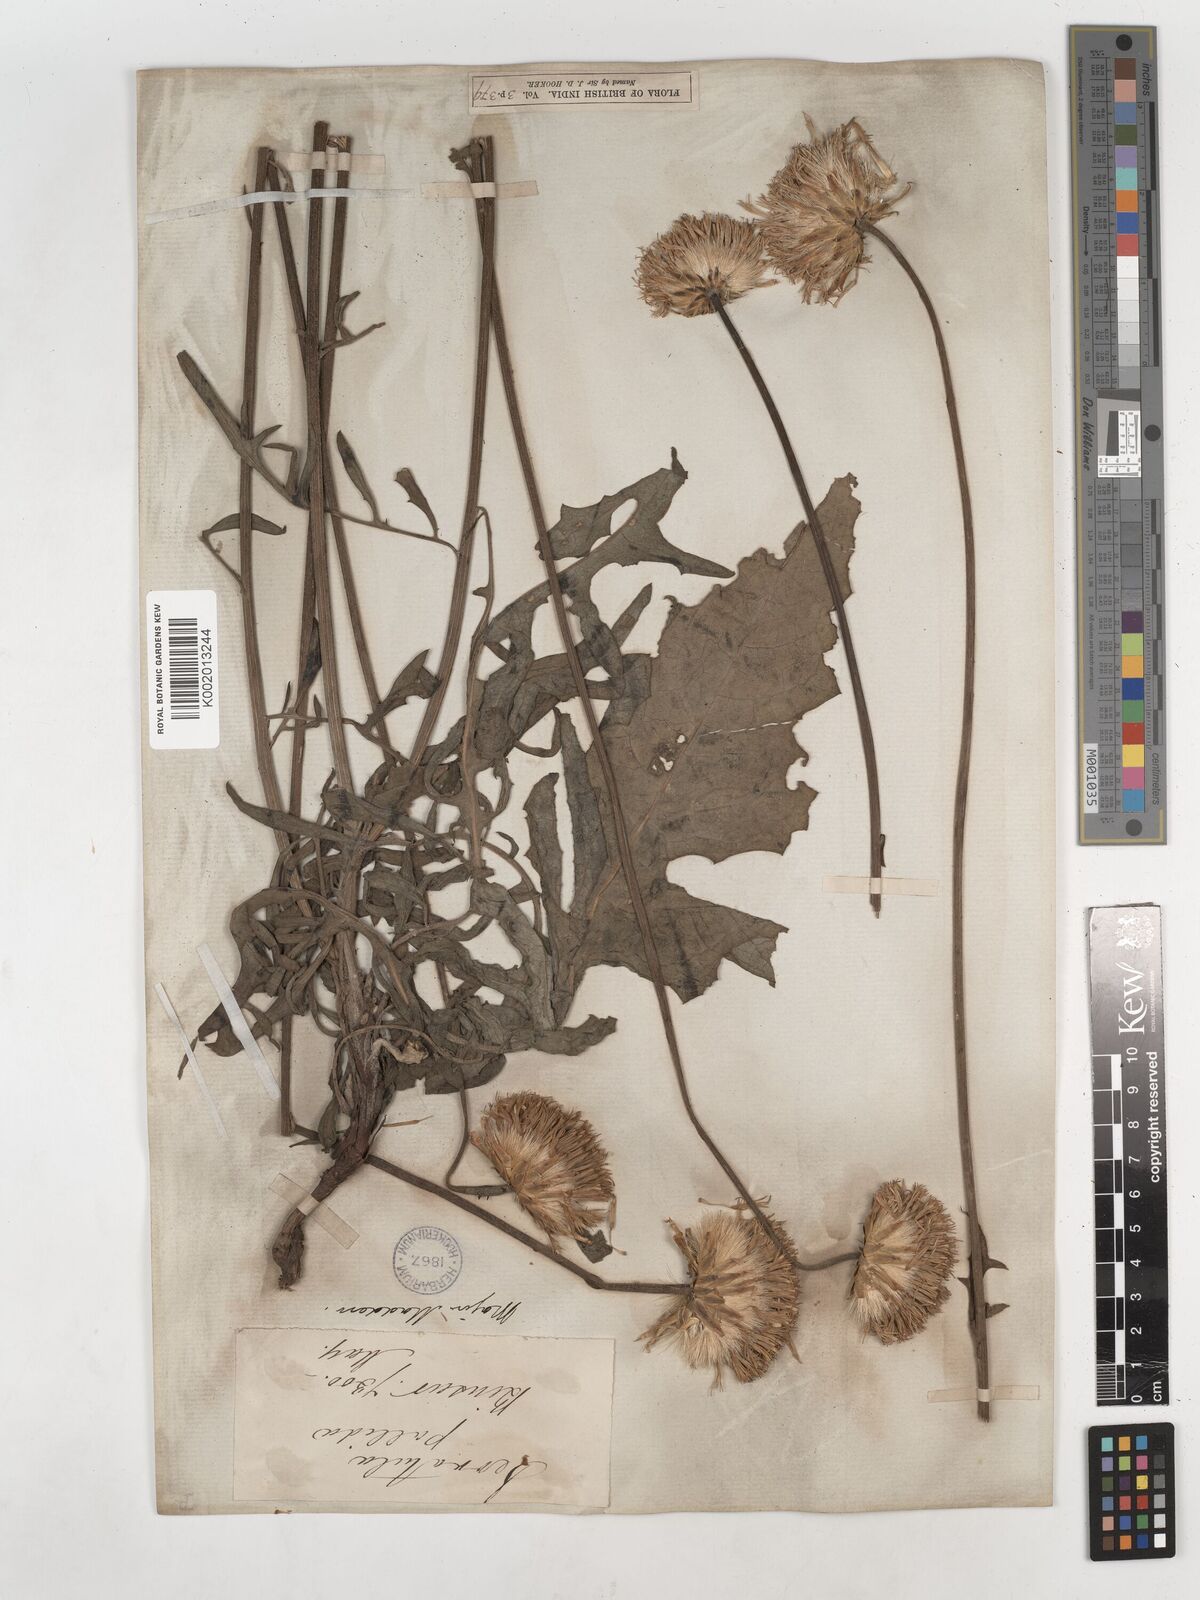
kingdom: Plantae
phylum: Tracheophyta
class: Magnoliopsida
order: Asterales
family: Asteraceae
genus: Klasea
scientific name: Klasea pallida
